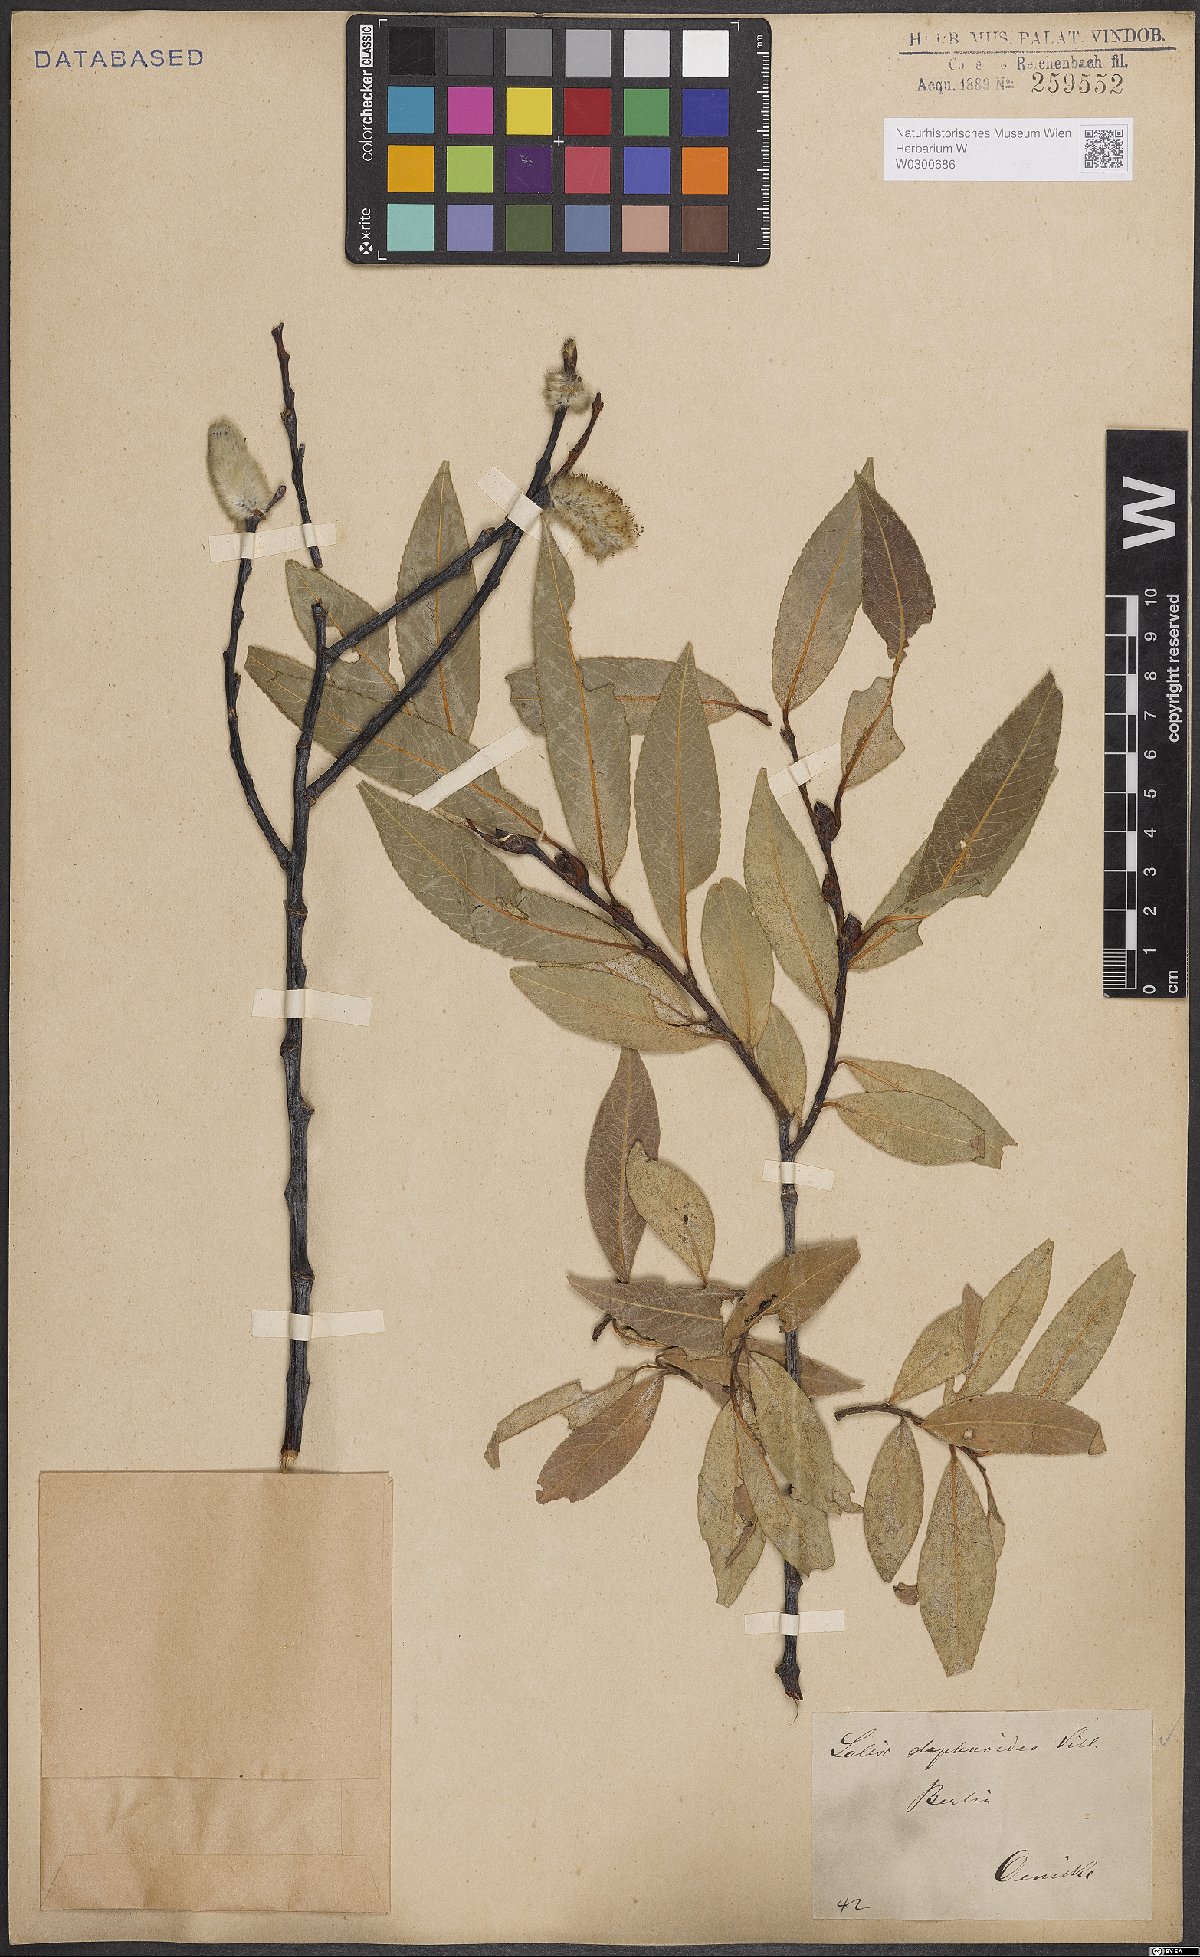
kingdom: Plantae
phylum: Tracheophyta
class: Magnoliopsida
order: Malpighiales
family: Salicaceae
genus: Salix
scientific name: Salix daphnoides
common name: European violet-willow
